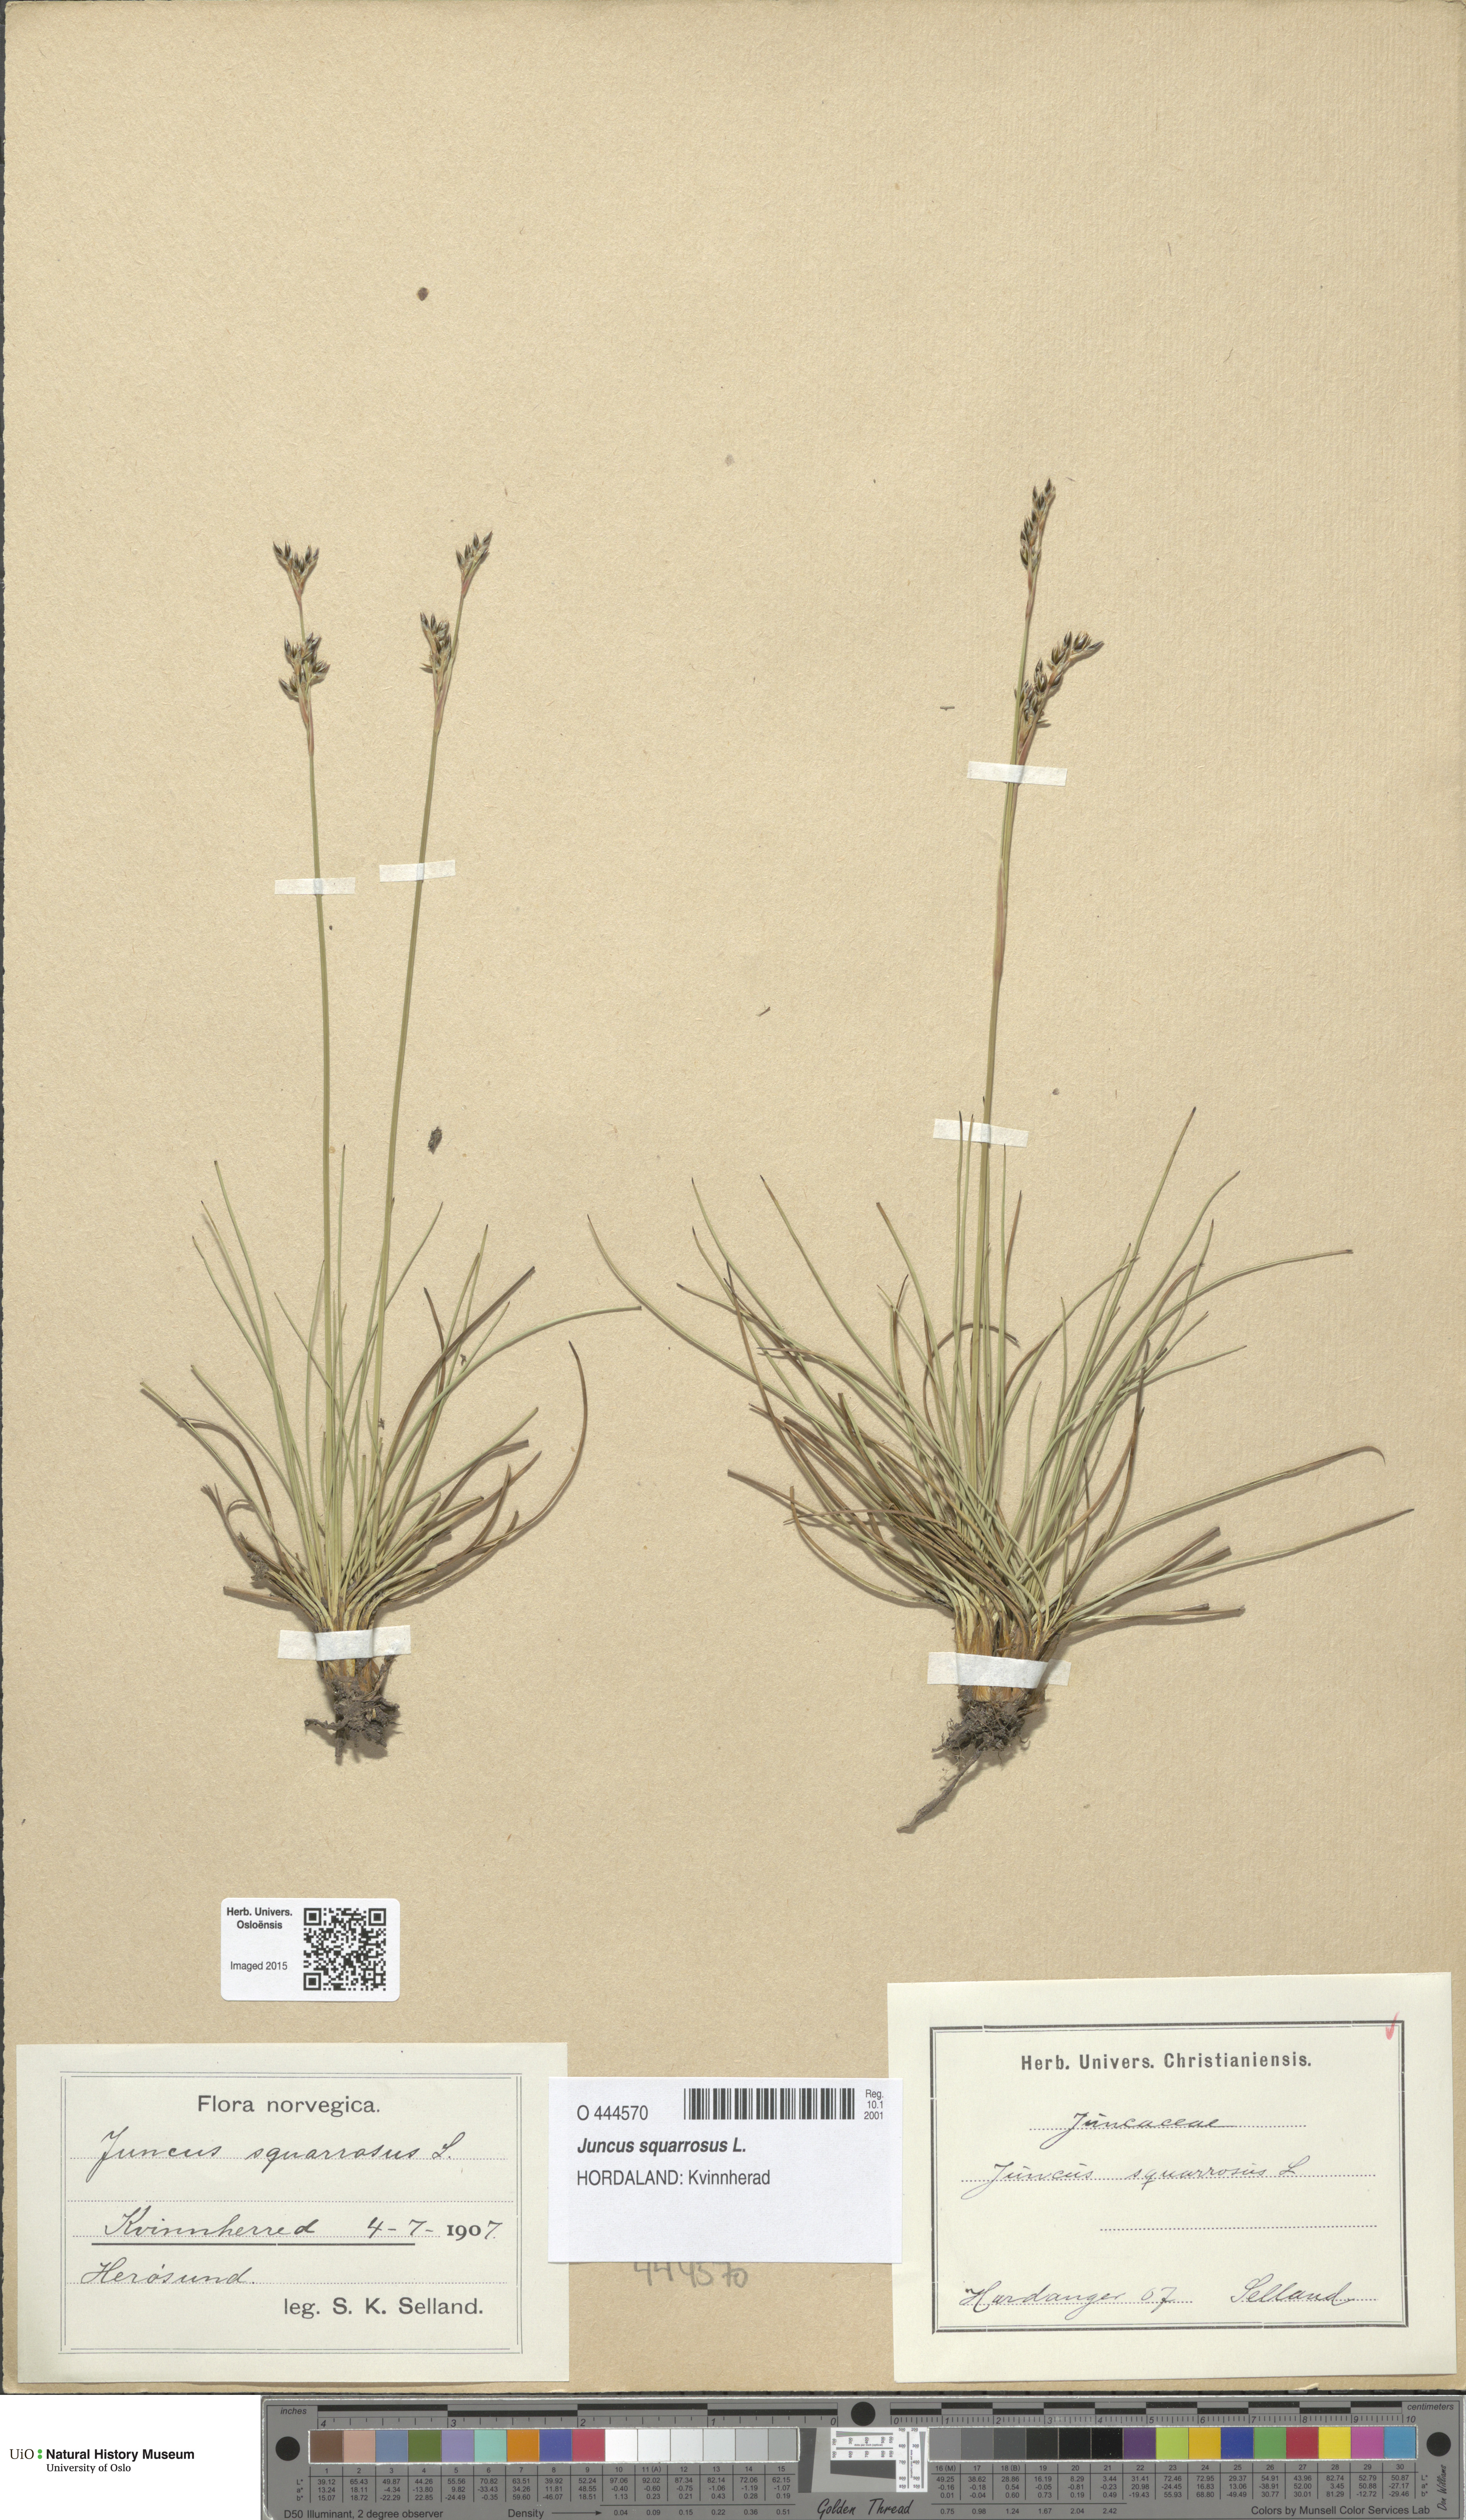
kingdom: Plantae
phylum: Tracheophyta
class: Liliopsida
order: Poales
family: Juncaceae
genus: Juncus
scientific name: Juncus squarrosus
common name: Heath rush
